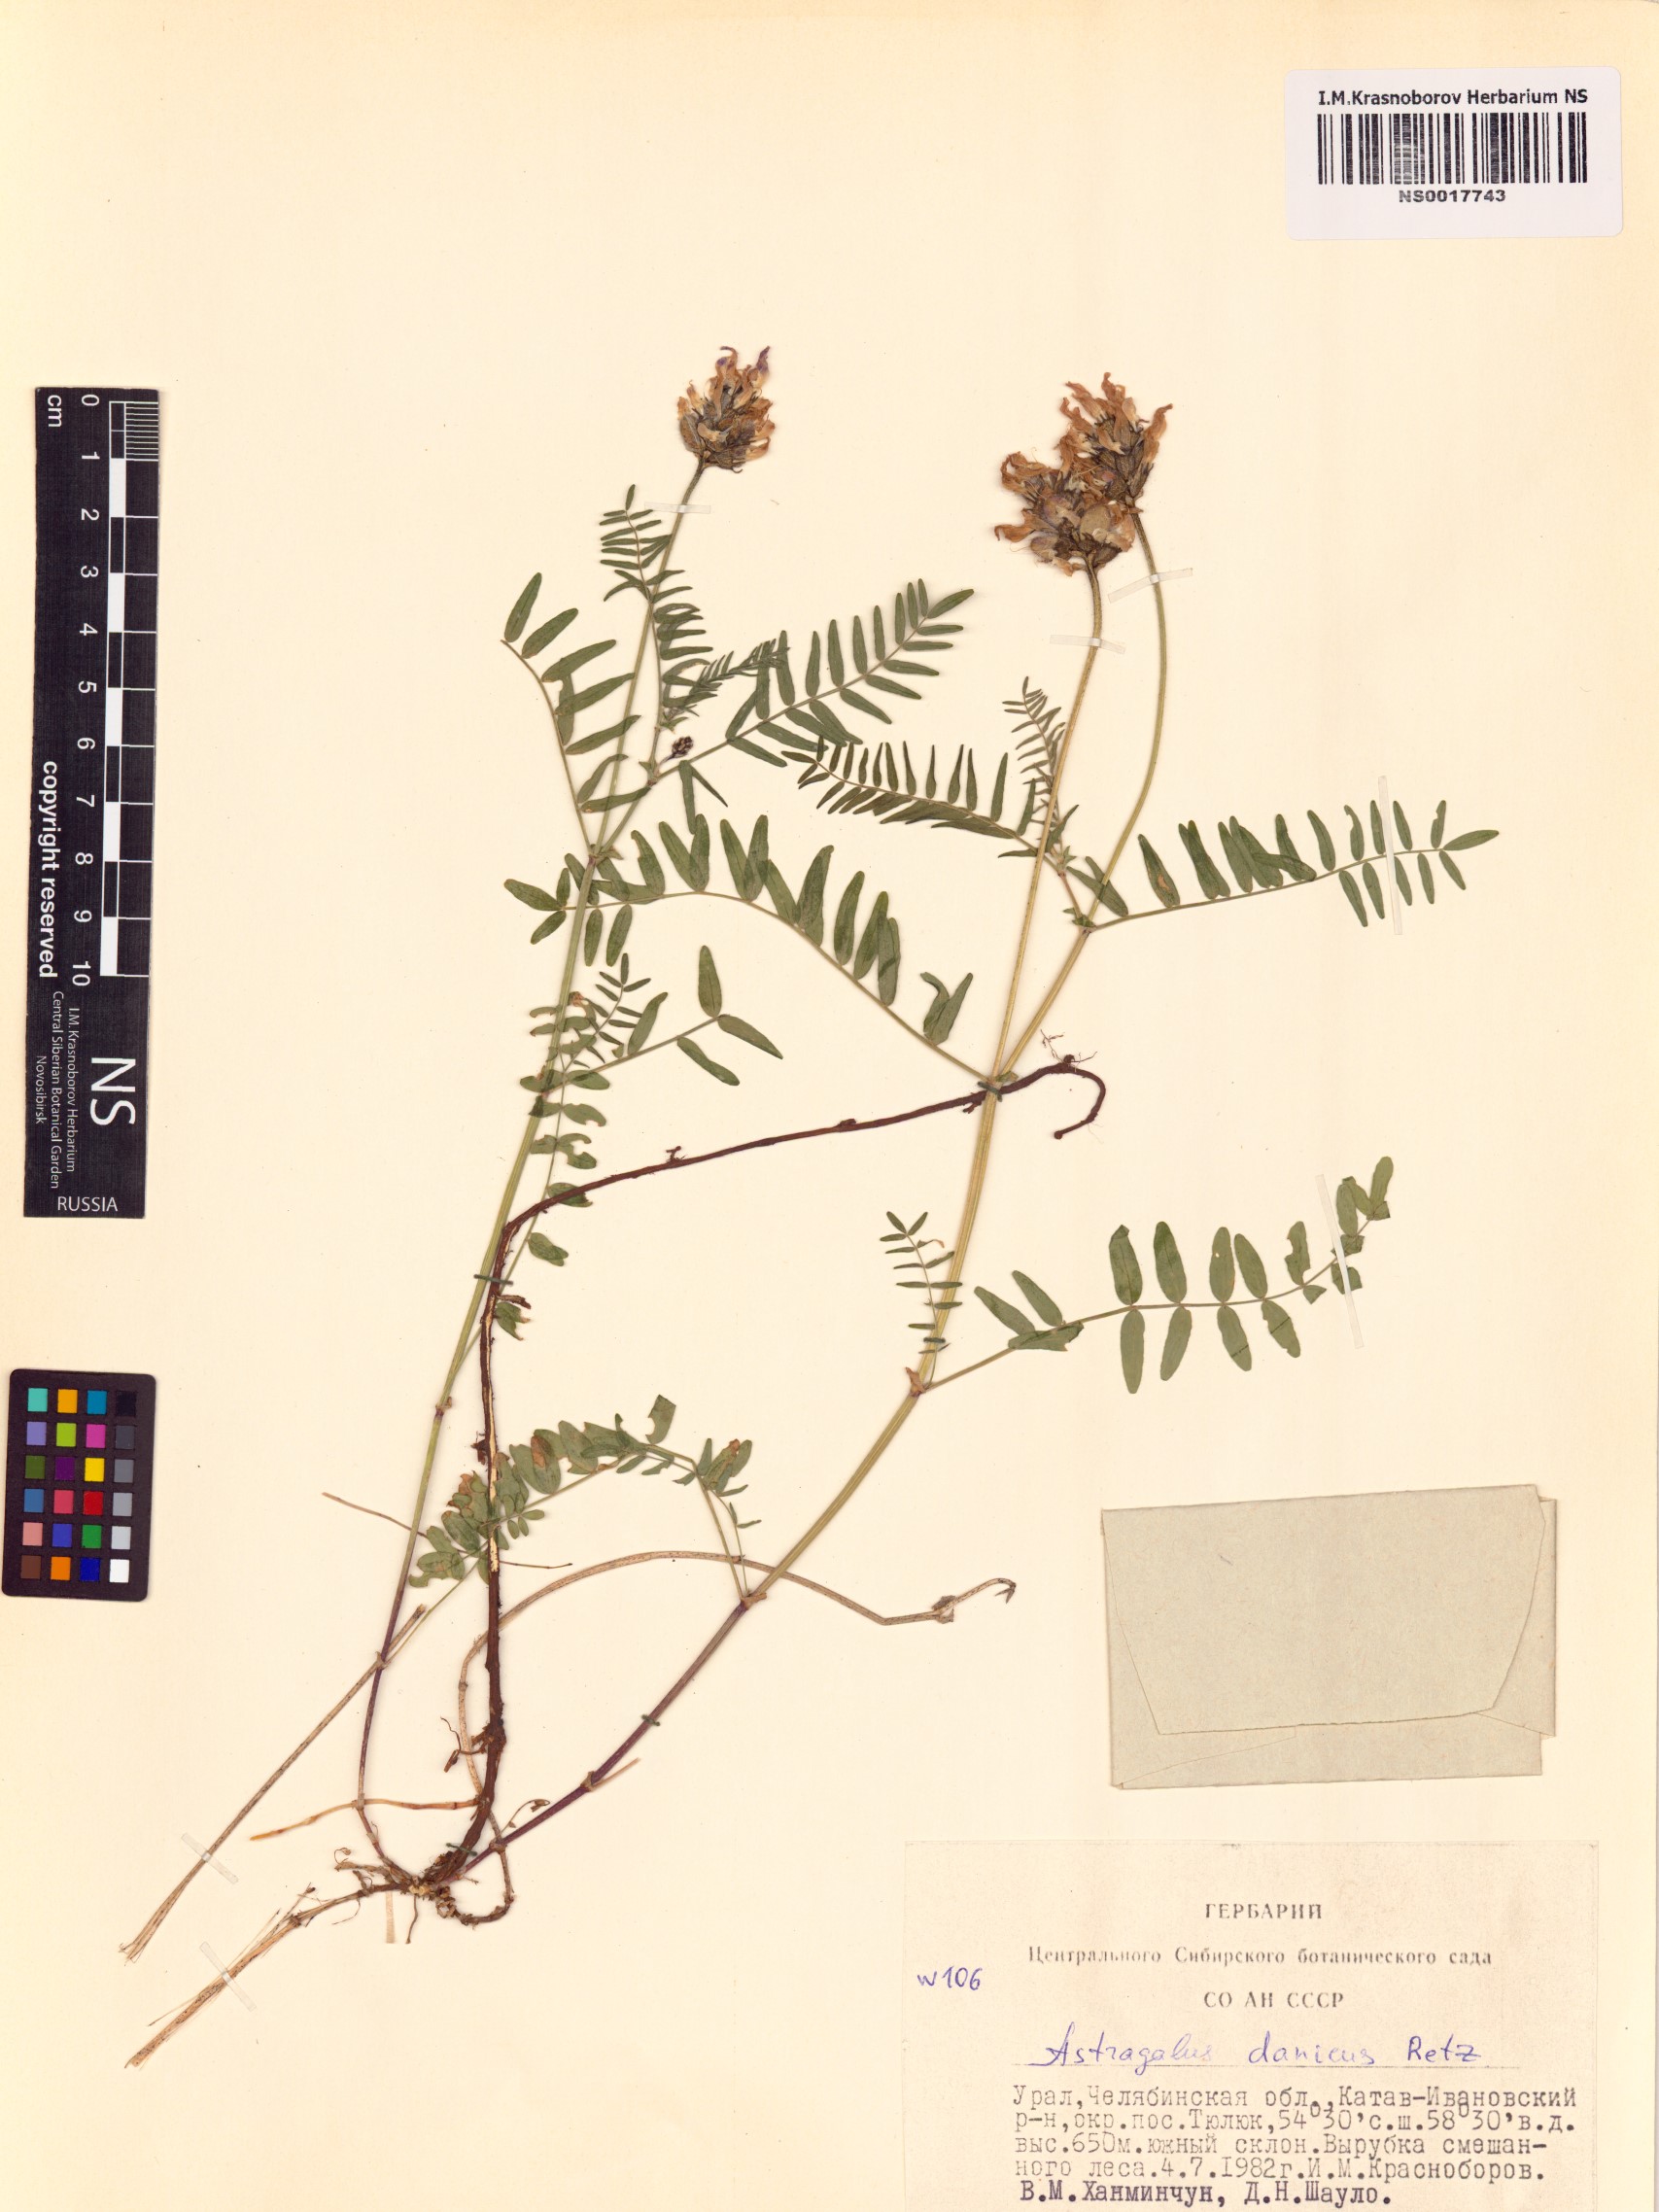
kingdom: Plantae
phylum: Tracheophyta
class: Magnoliopsida
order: Fabales
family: Fabaceae
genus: Astragalus
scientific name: Astragalus danicus
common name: Purple milk-vetch
